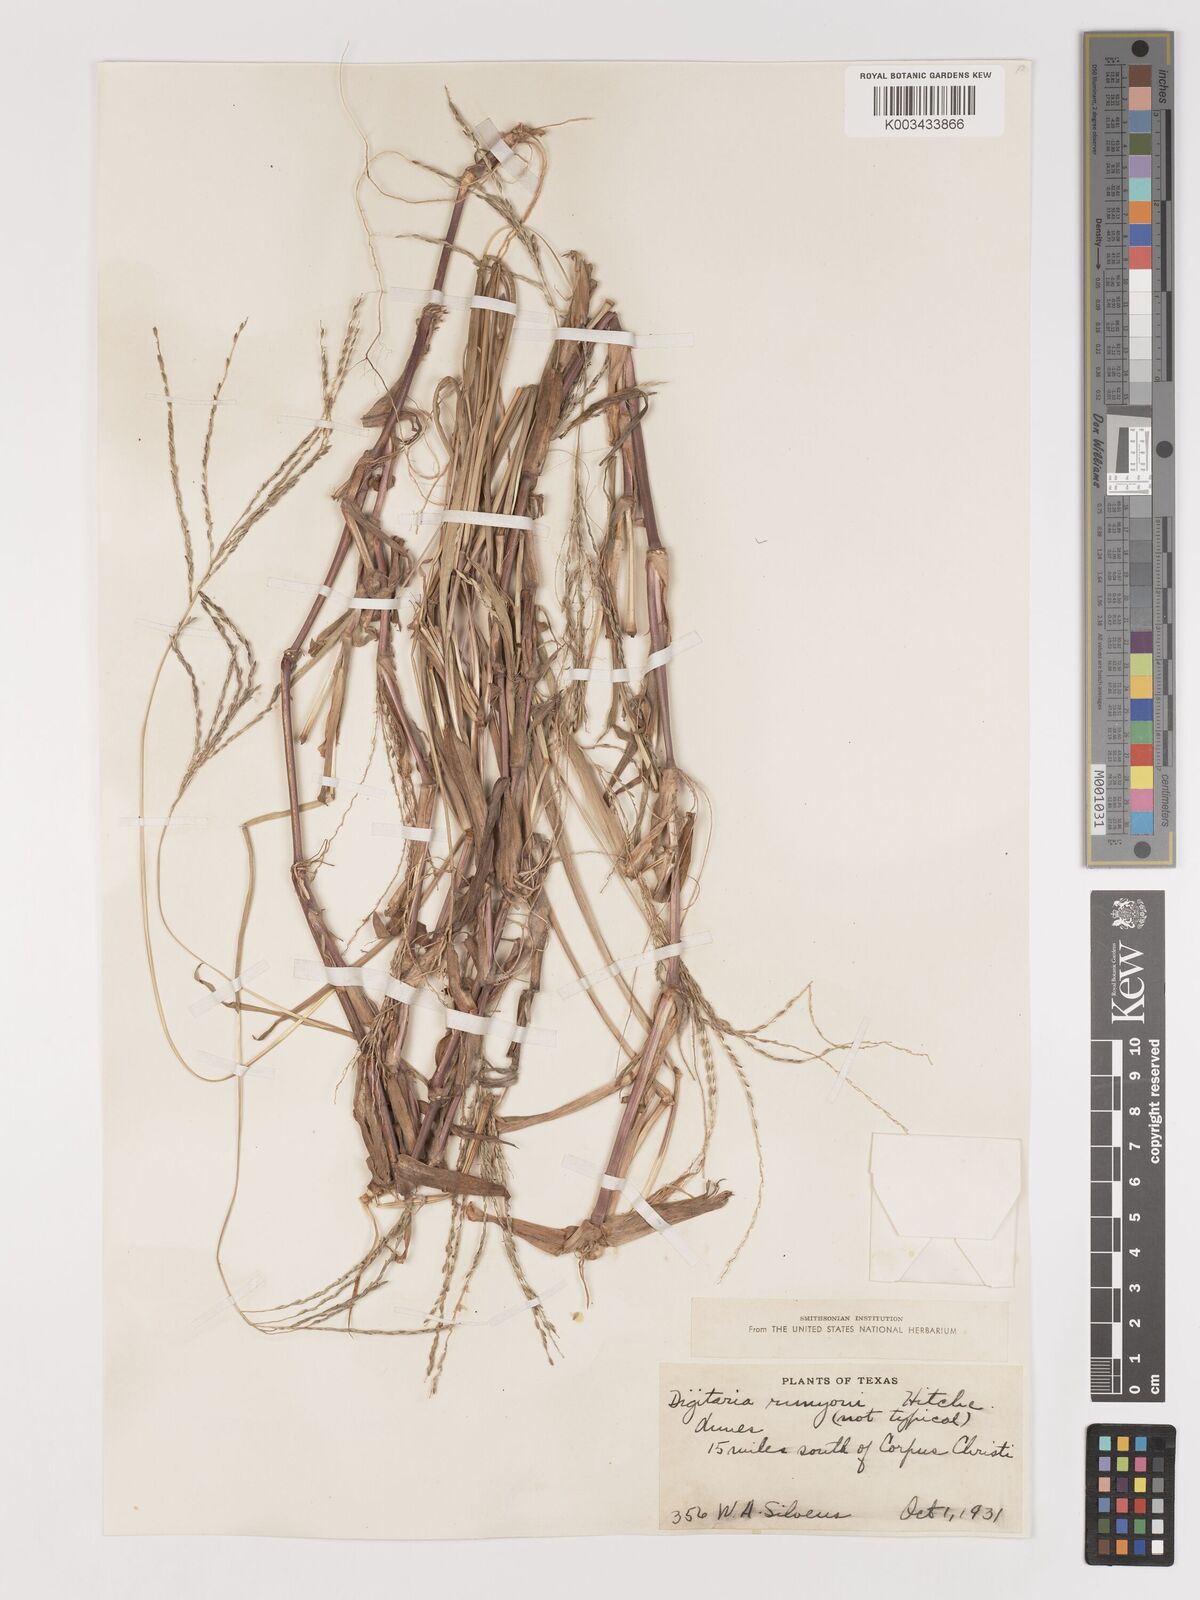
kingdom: Plantae
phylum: Tracheophyta
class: Liliopsida
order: Poales
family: Poaceae
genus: Digitaria
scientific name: Digitaria texana
